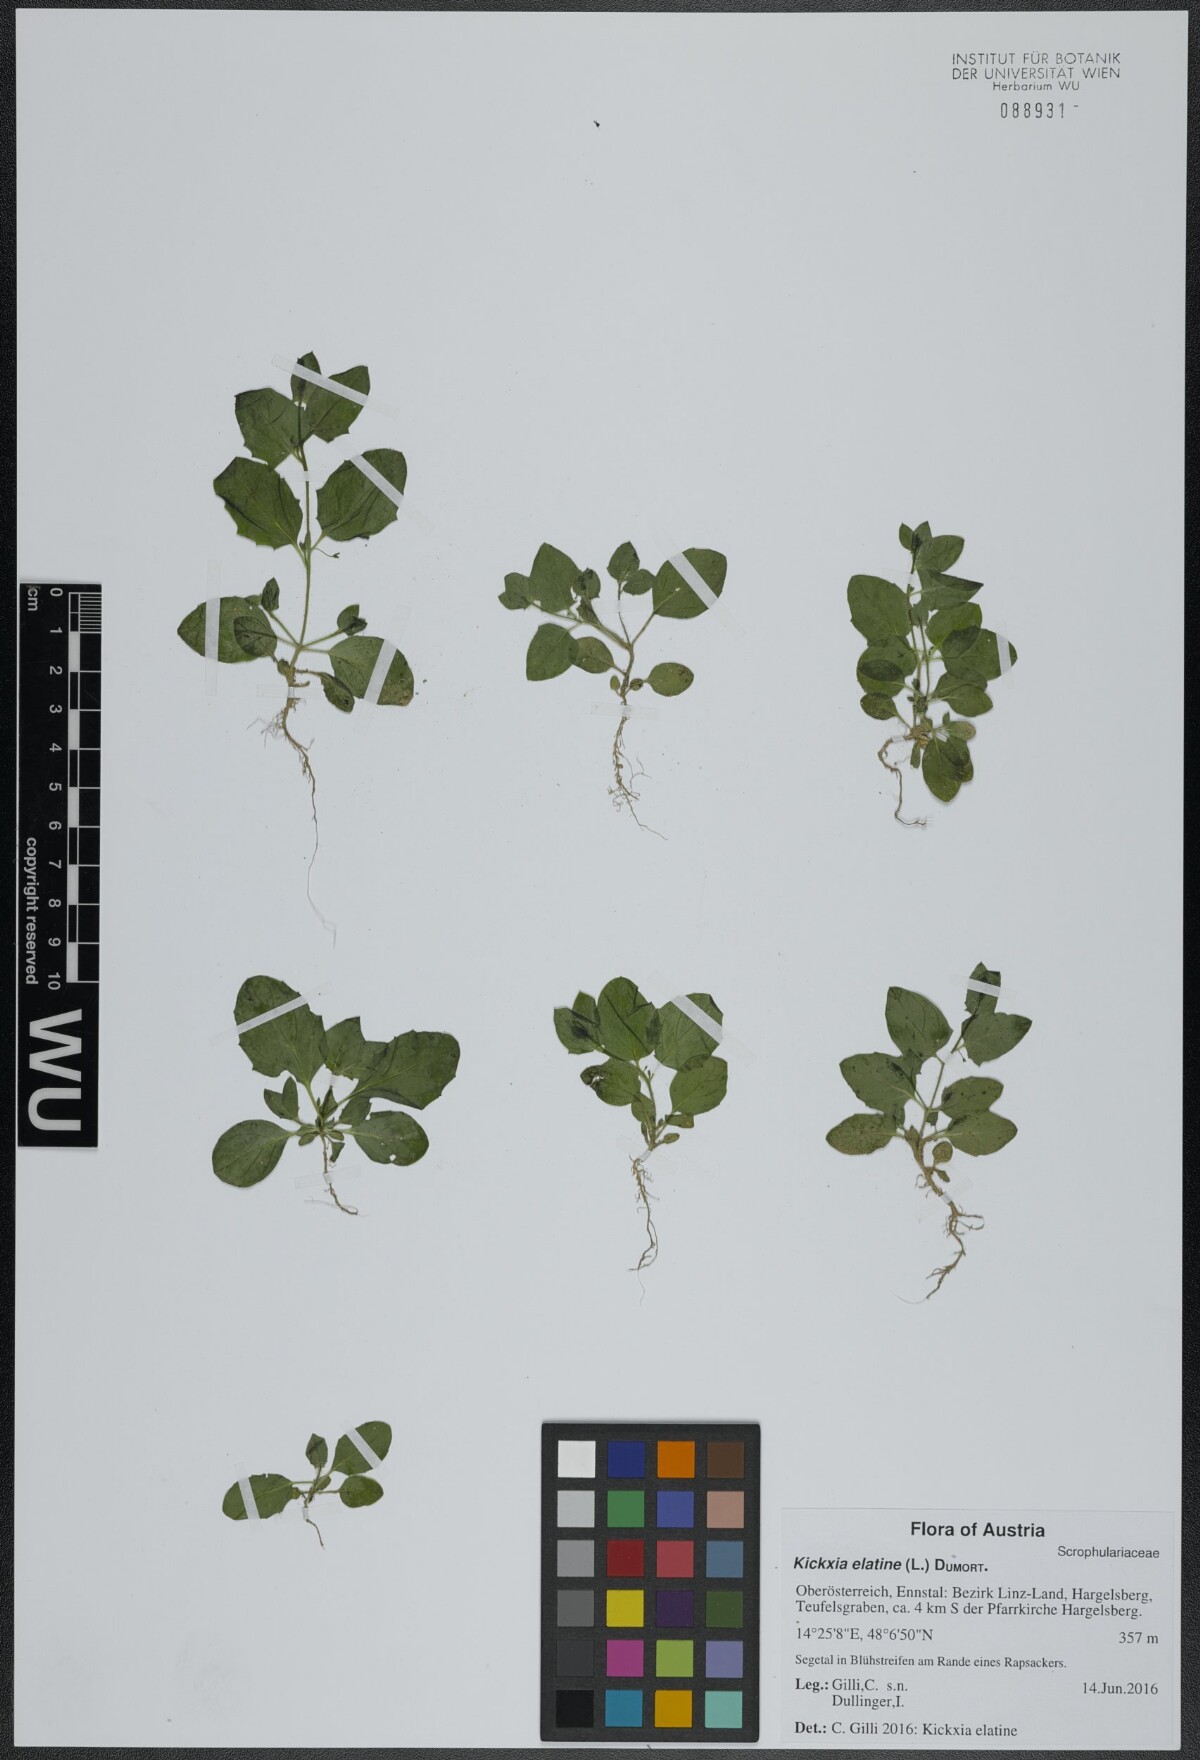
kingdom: Plantae
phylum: Tracheophyta
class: Magnoliopsida
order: Lamiales
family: Plantaginaceae
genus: Kickxia
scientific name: Kickxia elatine
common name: Sharp-leaved fluellen
